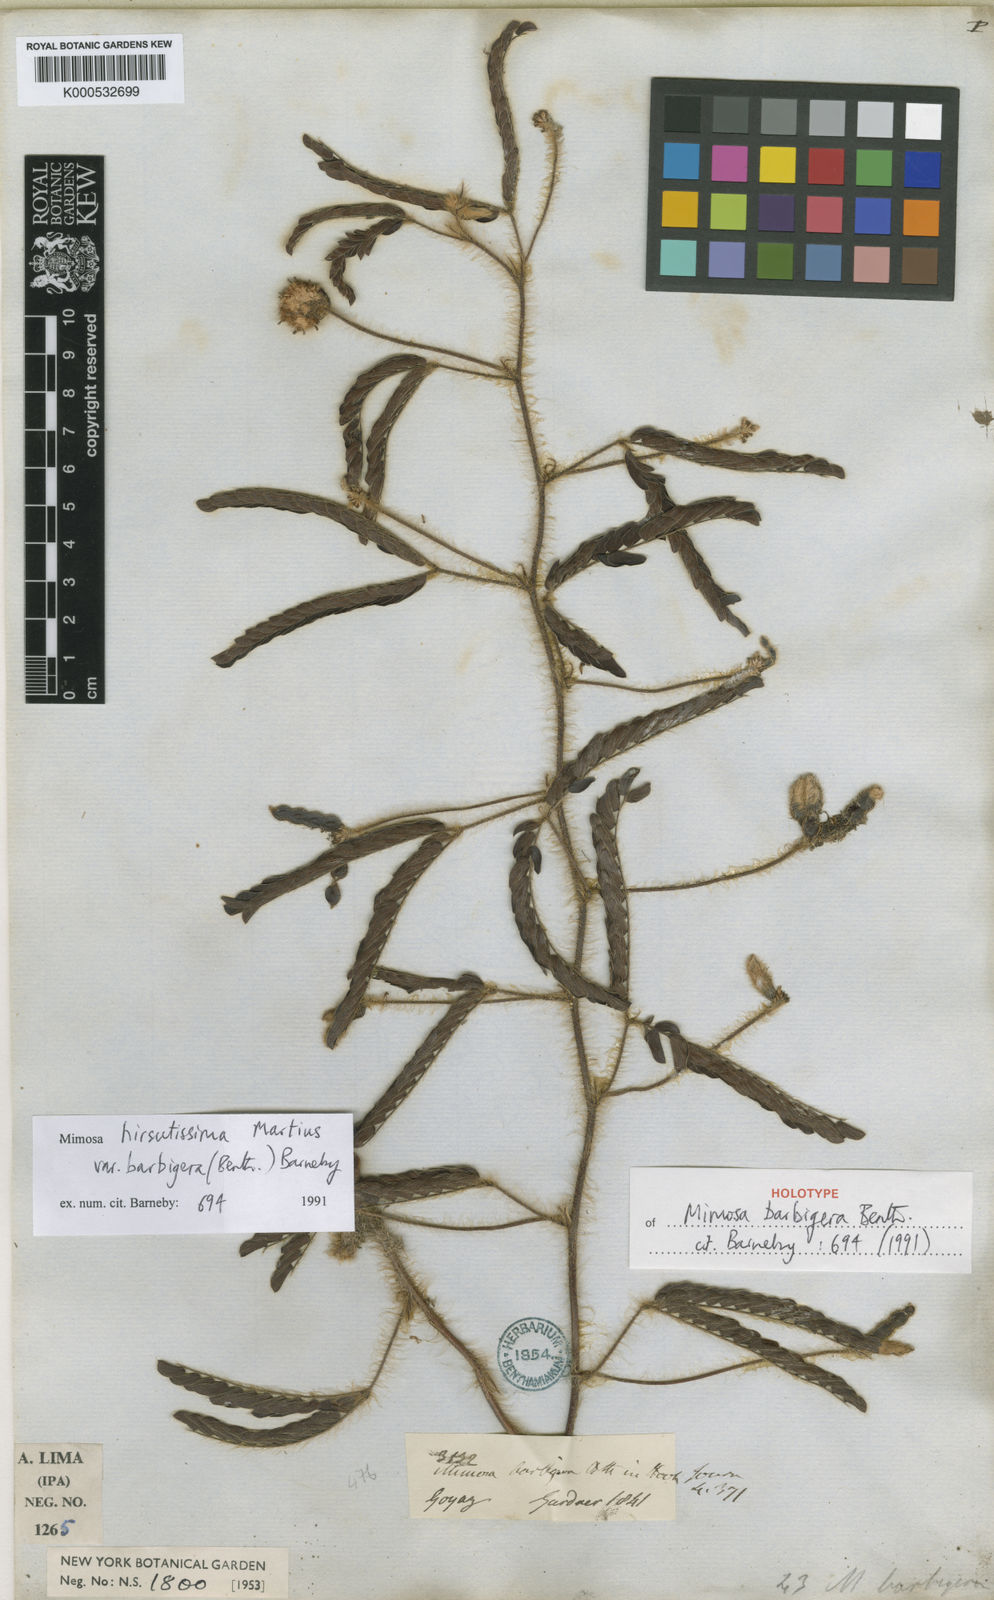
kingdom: Plantae
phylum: Tracheophyta
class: Magnoliopsida
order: Fabales
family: Fabaceae
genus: Mimosa
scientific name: Mimosa hirsutissima
